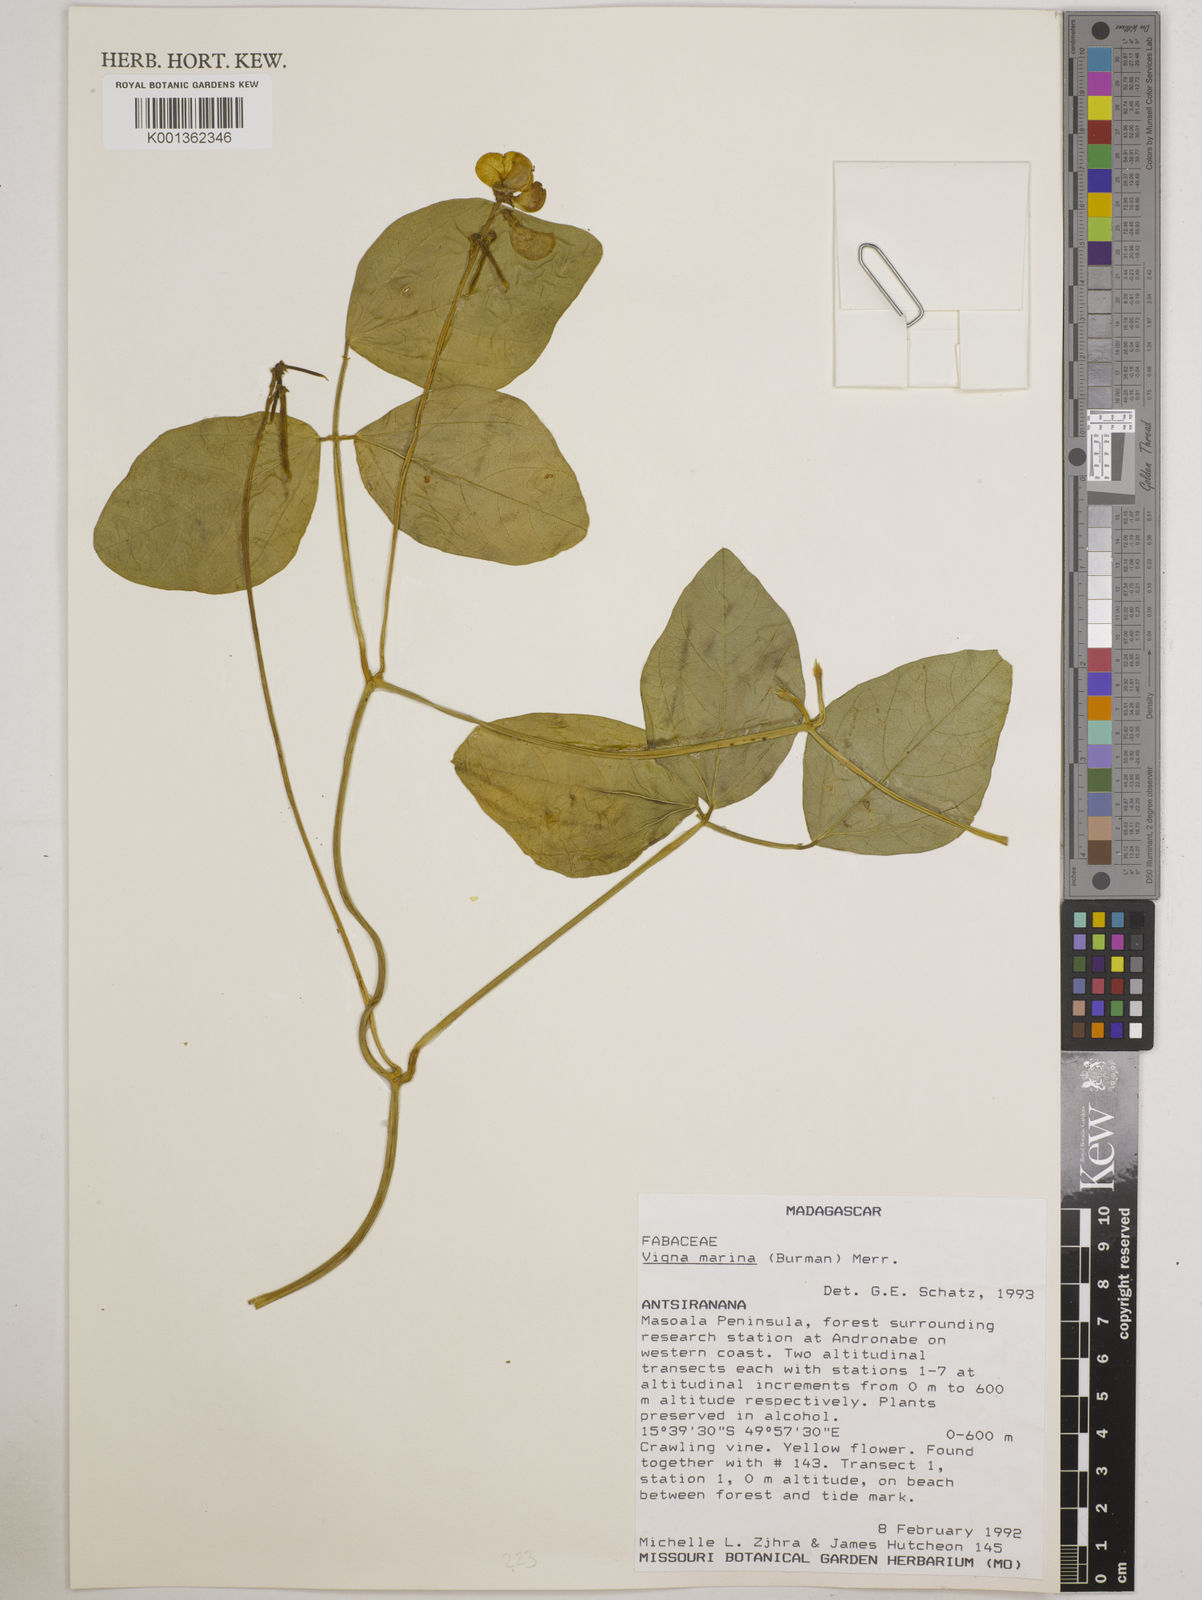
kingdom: Plantae
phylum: Tracheophyta
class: Magnoliopsida
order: Fabales
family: Fabaceae
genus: Vigna
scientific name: Vigna marina
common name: Dune-bean
